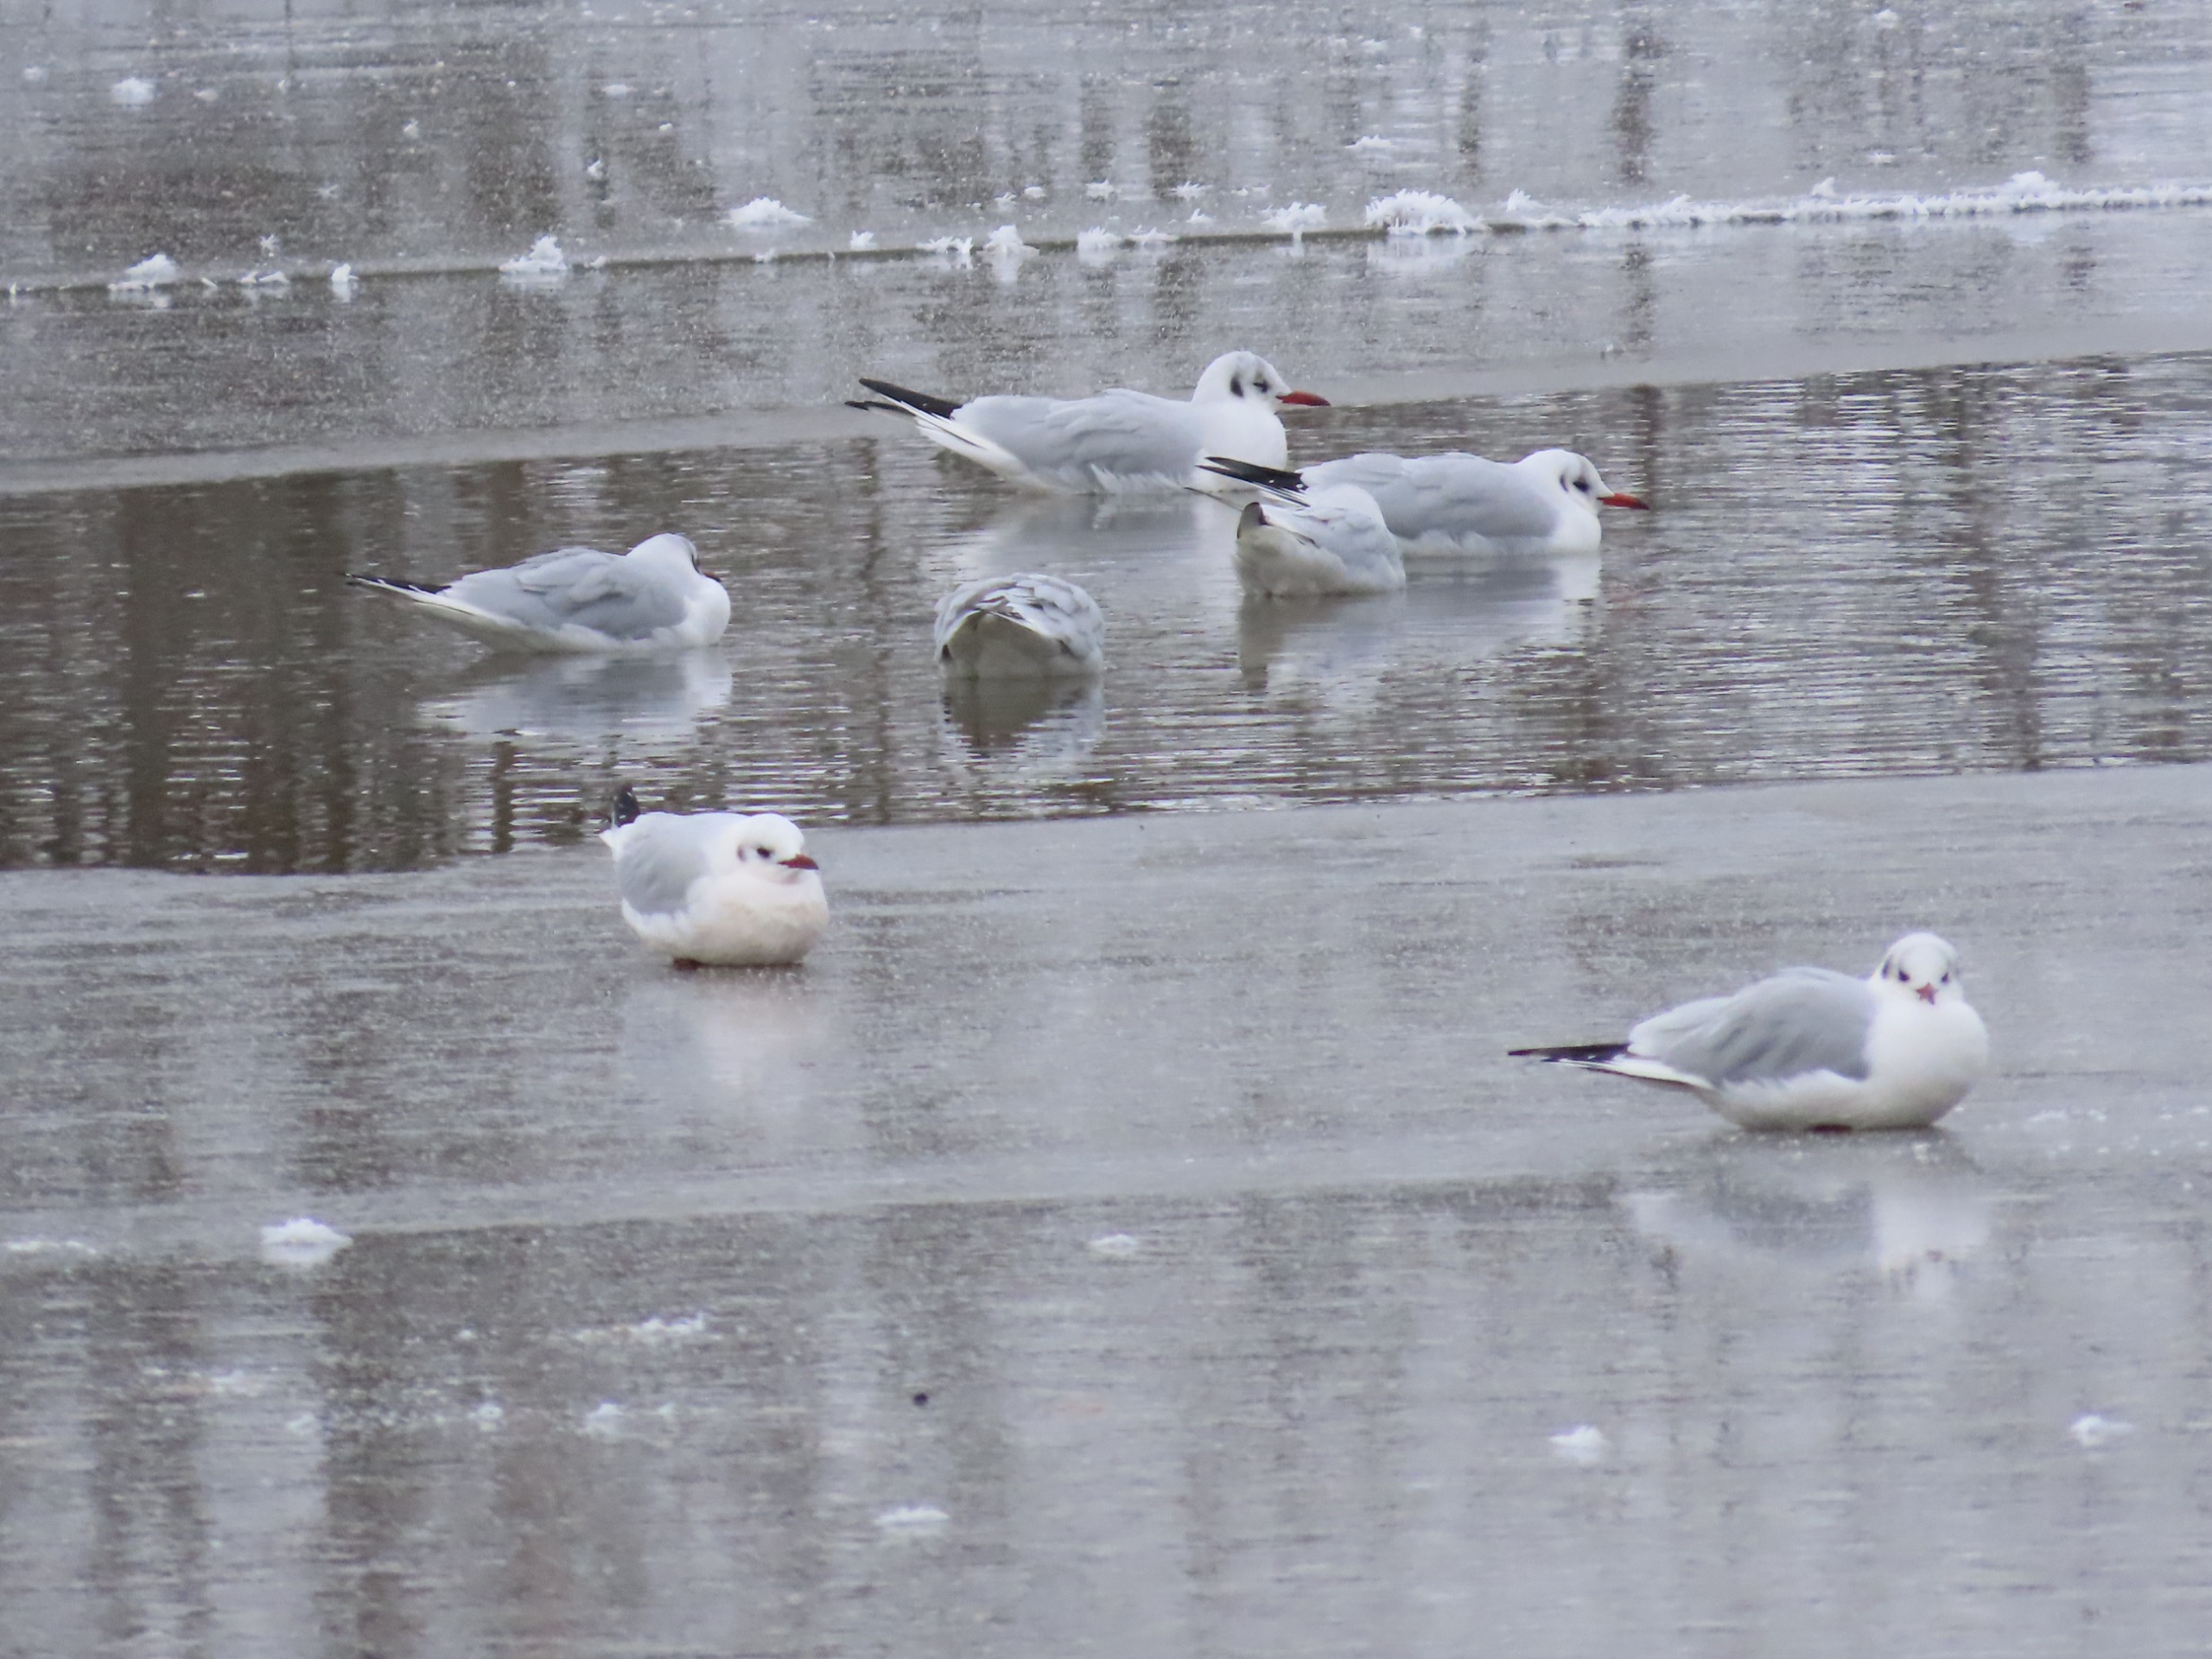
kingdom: Animalia
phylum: Chordata
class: Aves
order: Charadriiformes
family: Laridae
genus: Chroicocephalus
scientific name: Chroicocephalus ridibundus
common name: Hættemåge
